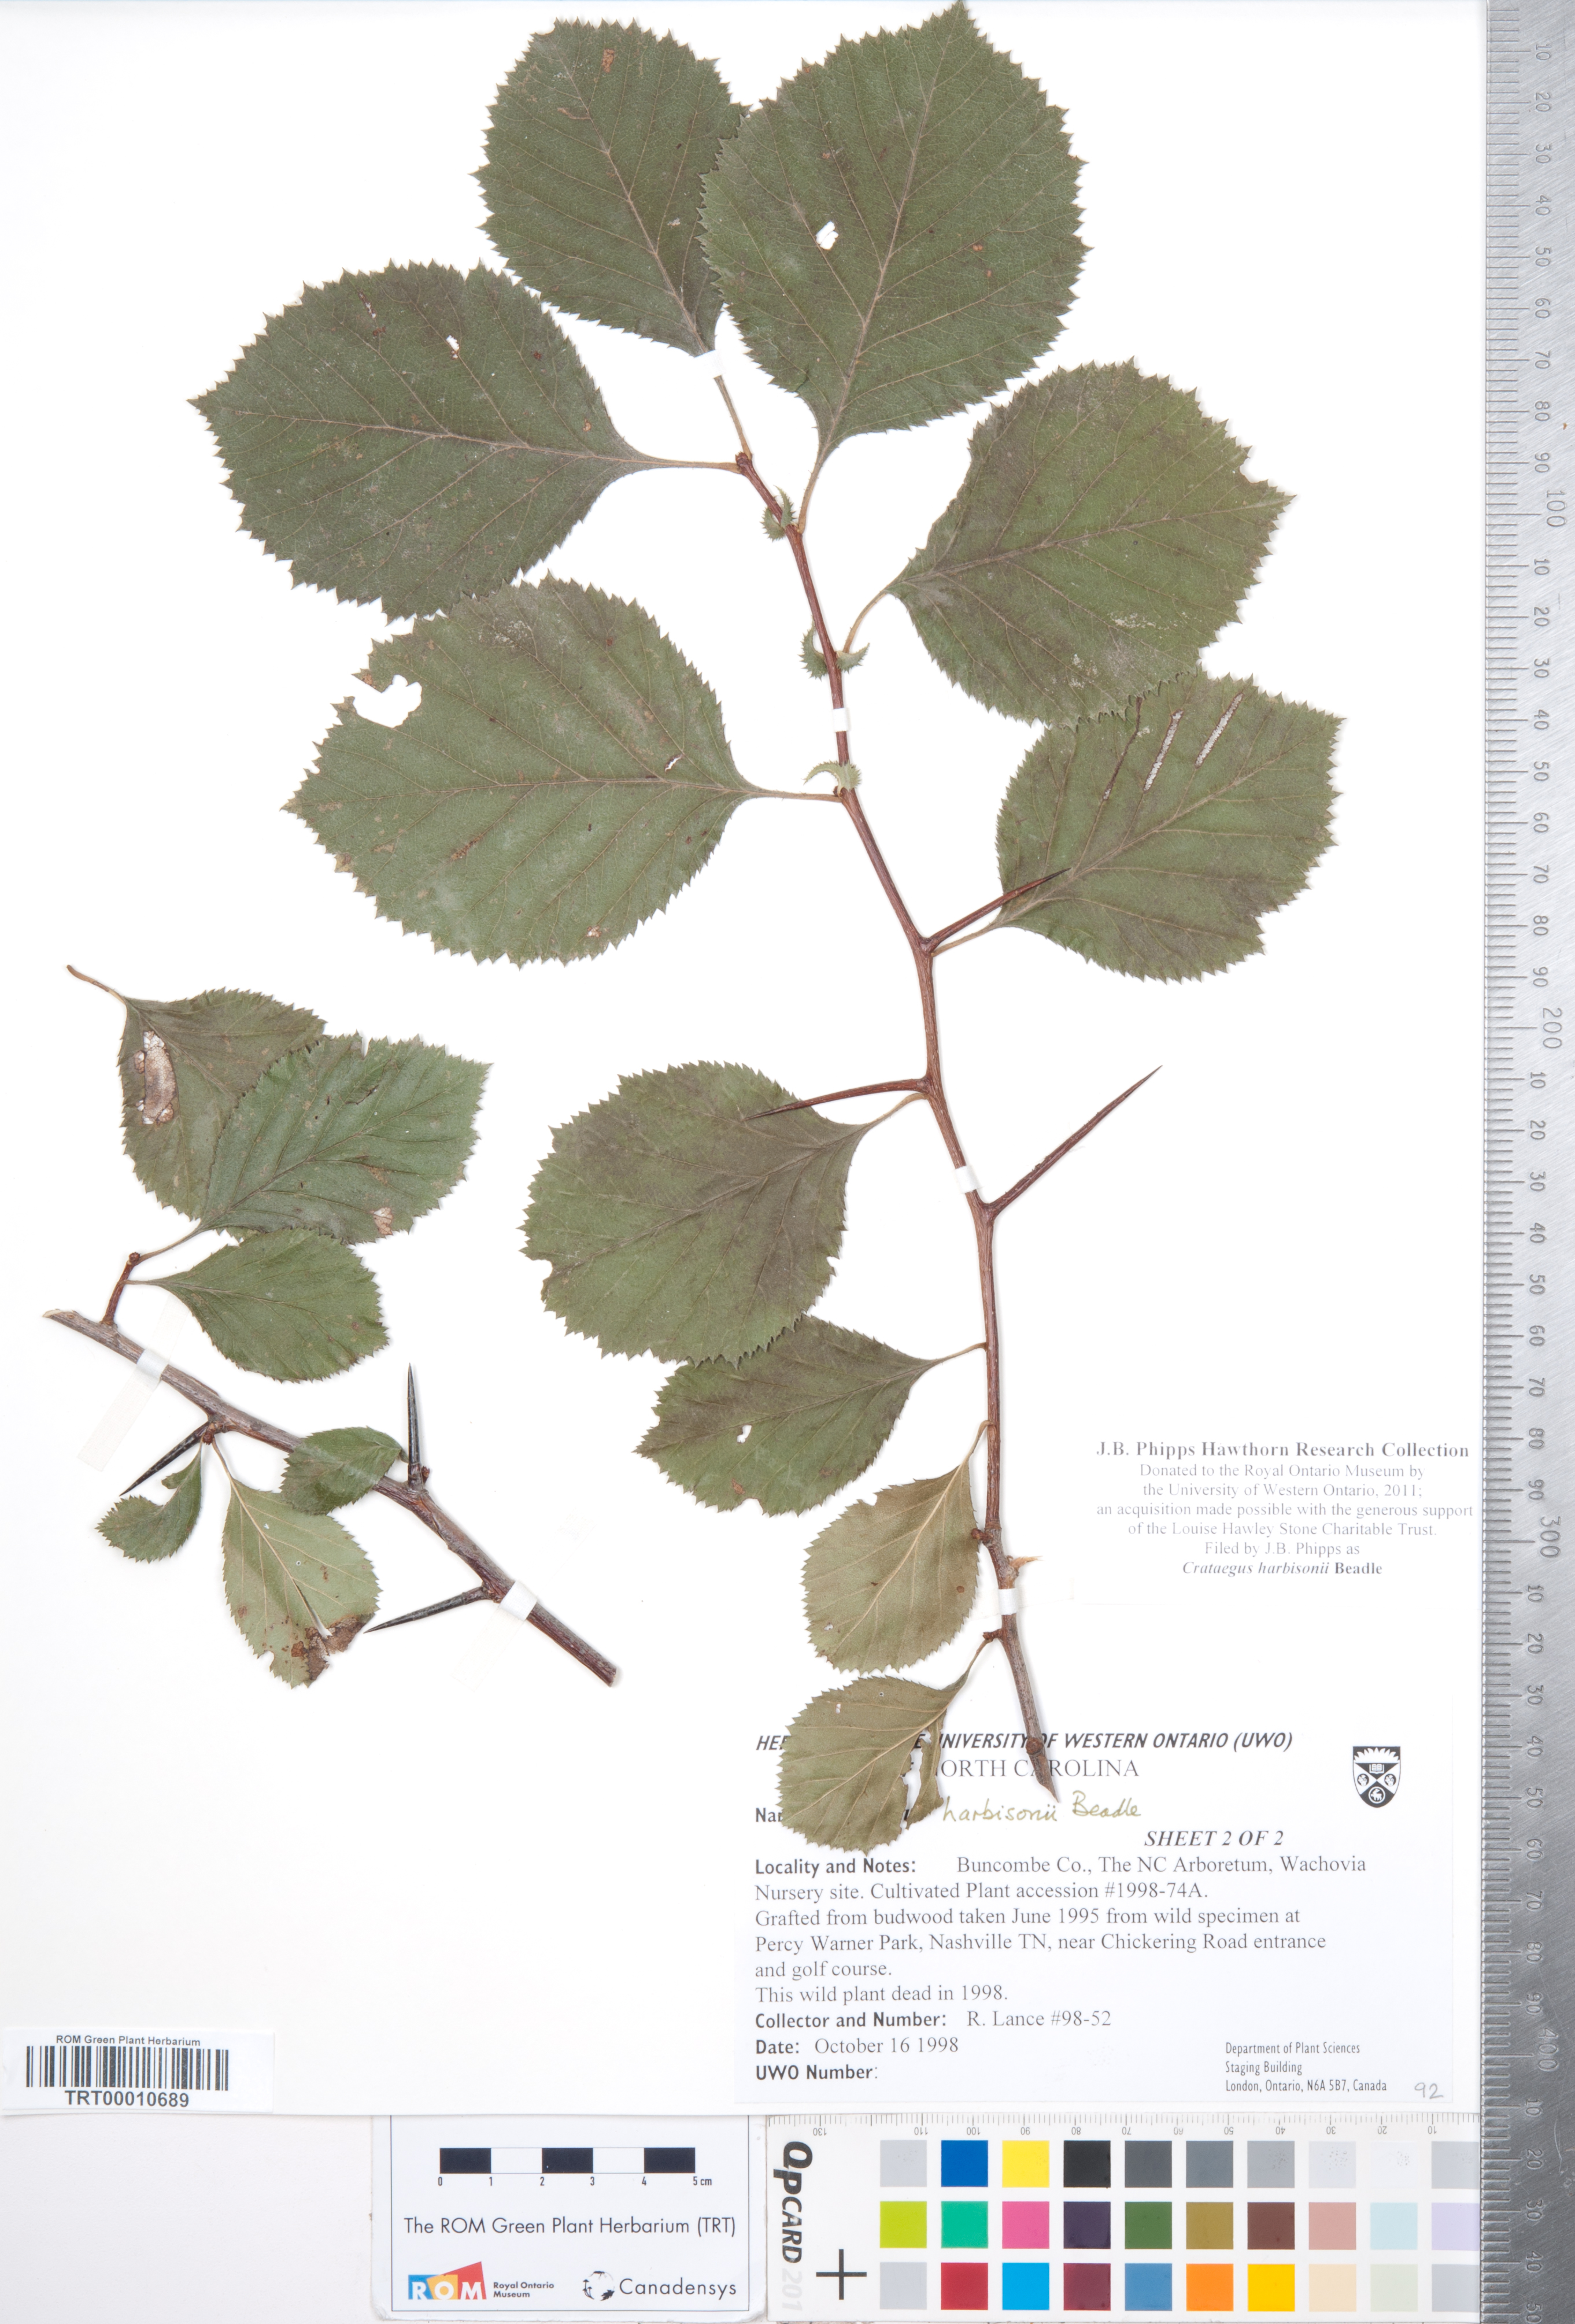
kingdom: Plantae
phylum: Tracheophyta
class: Magnoliopsida
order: Rosales
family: Rosaceae
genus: Crataegus
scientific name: Crataegus harbisonii
